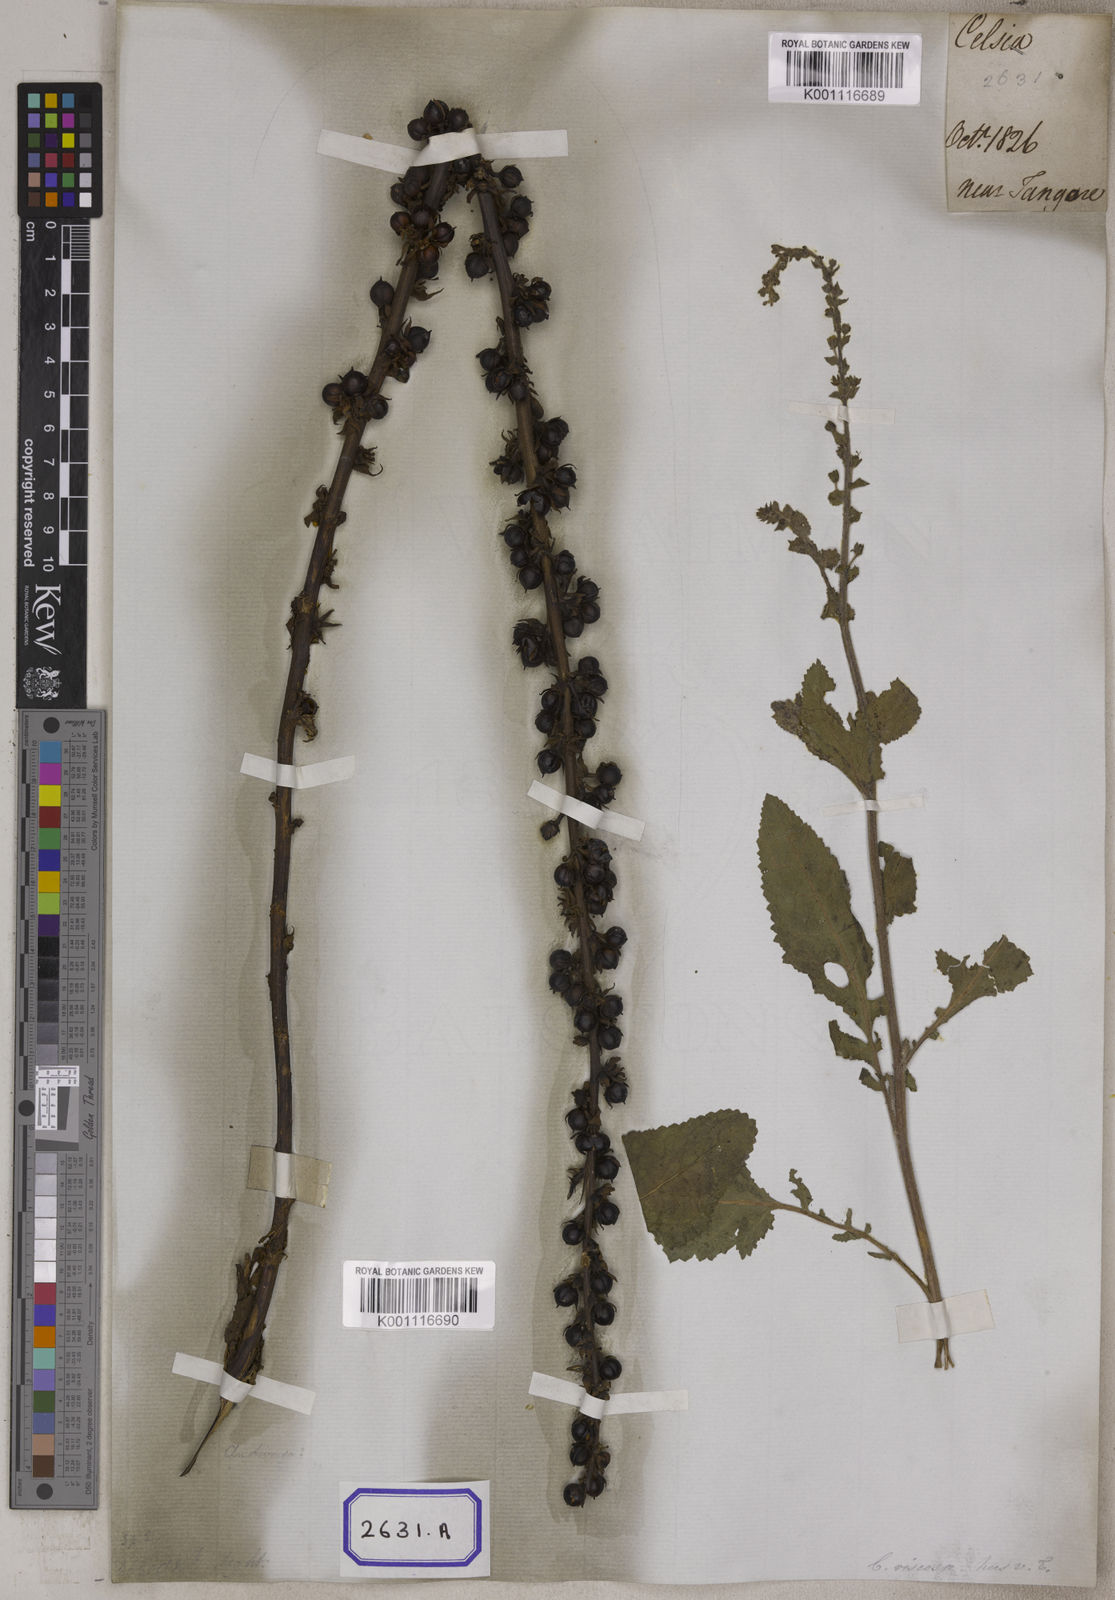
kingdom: Animalia
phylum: Arthropoda
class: Insecta
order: Lepidoptera
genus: Celsia
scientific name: Celsia
